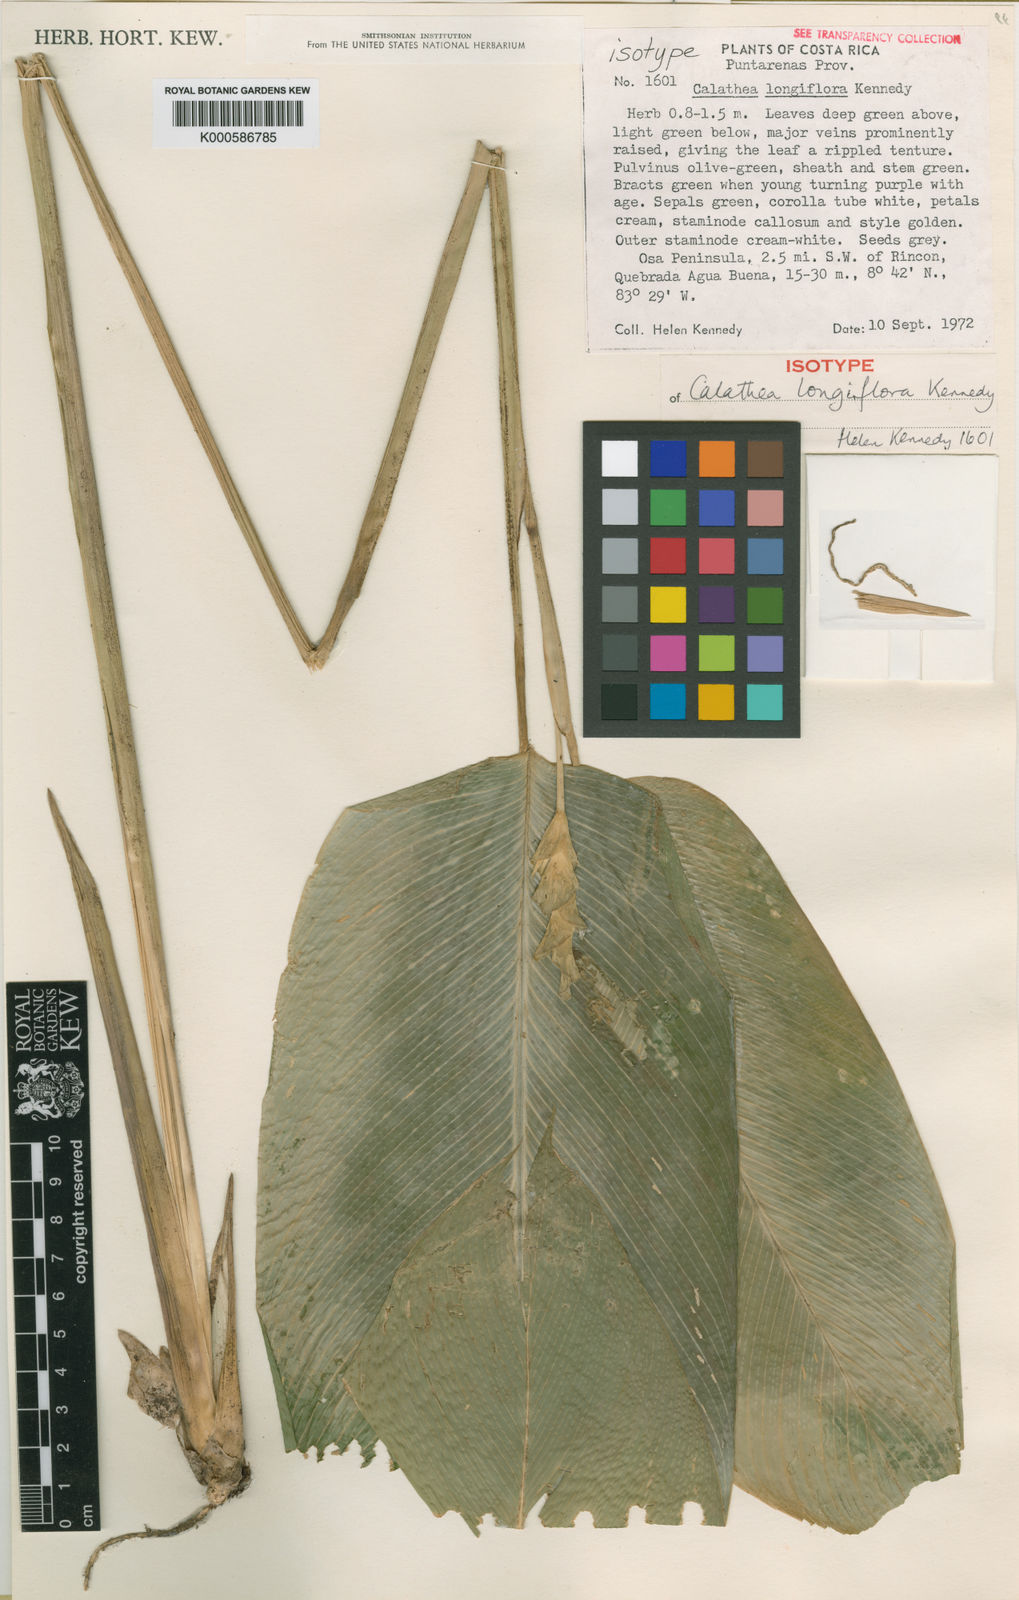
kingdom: Plantae
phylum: Tracheophyta
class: Liliopsida
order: Zingiberales
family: Marantaceae
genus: Goeppertia
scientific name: Goeppertia longiflora
